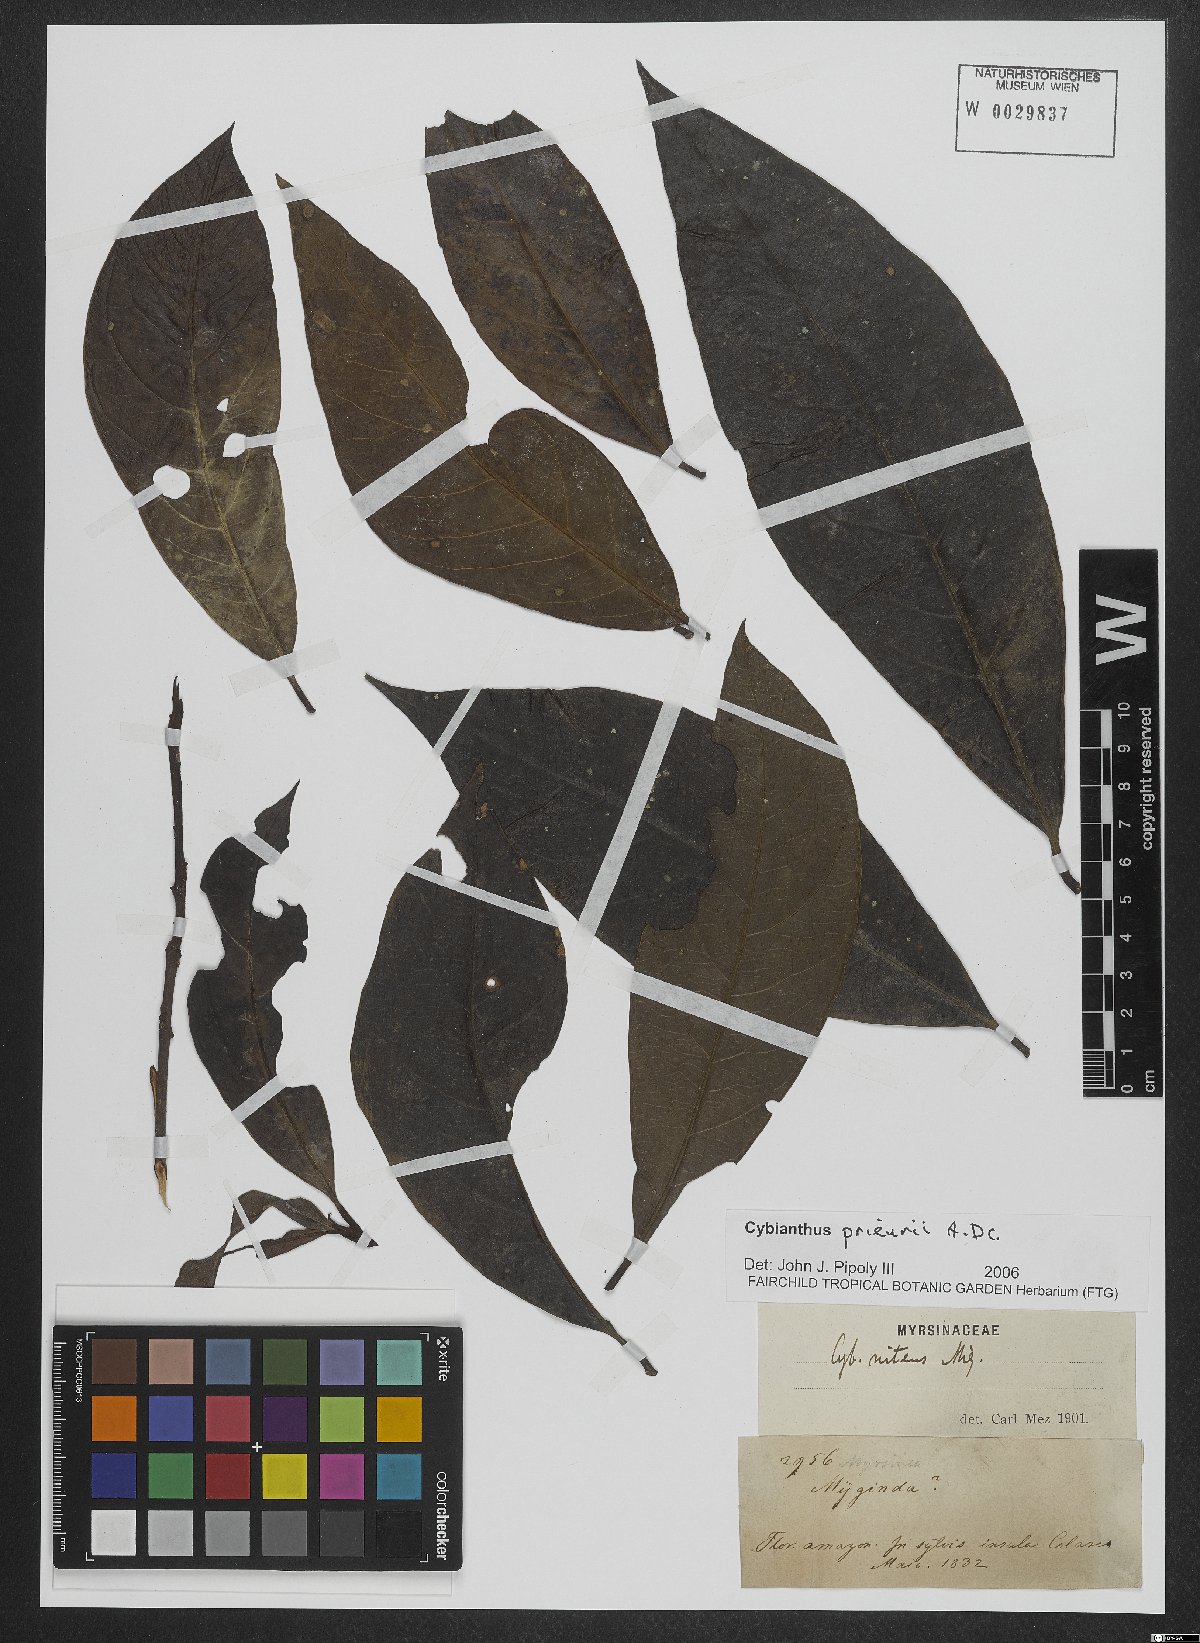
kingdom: Plantae
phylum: Tracheophyta
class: Magnoliopsida
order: Ericales
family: Primulaceae
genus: Cybianthus
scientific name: Cybianthus prieurii
